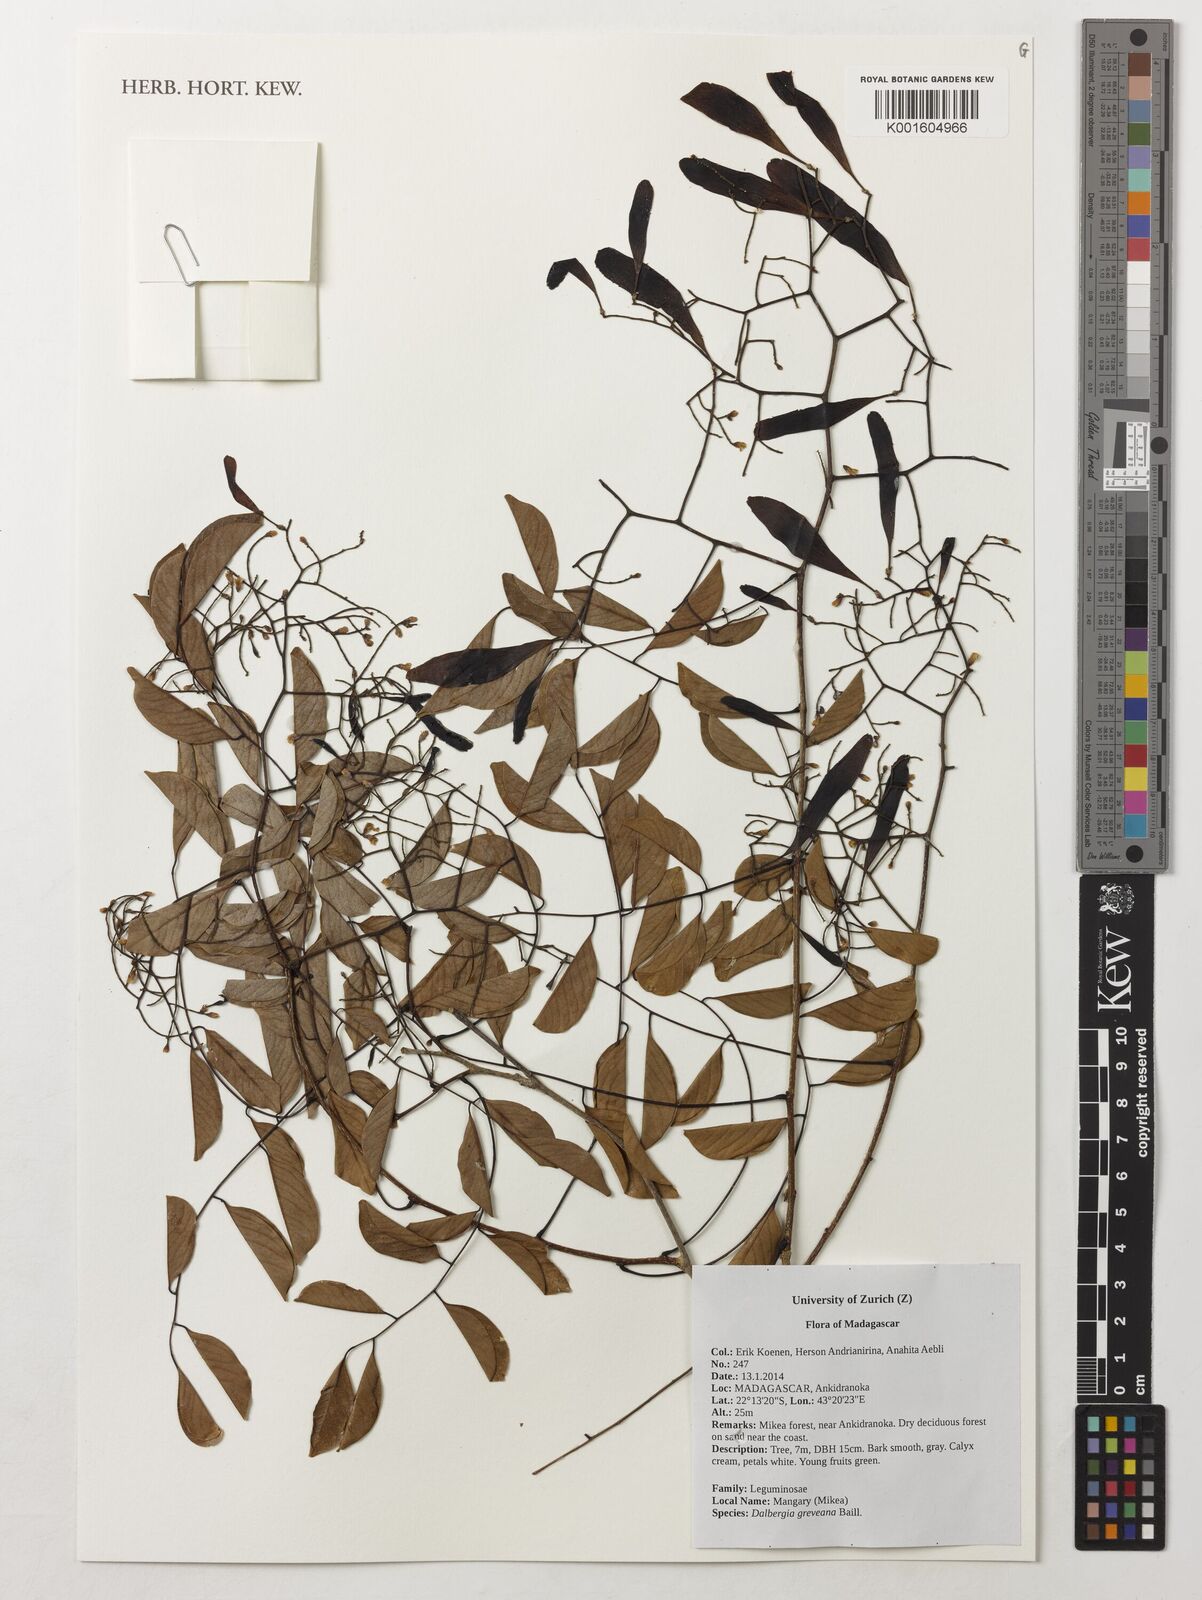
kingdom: Plantae
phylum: Tracheophyta
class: Magnoliopsida
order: Fabales
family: Fabaceae
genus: Dalbergia
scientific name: Dalbergia greveana
